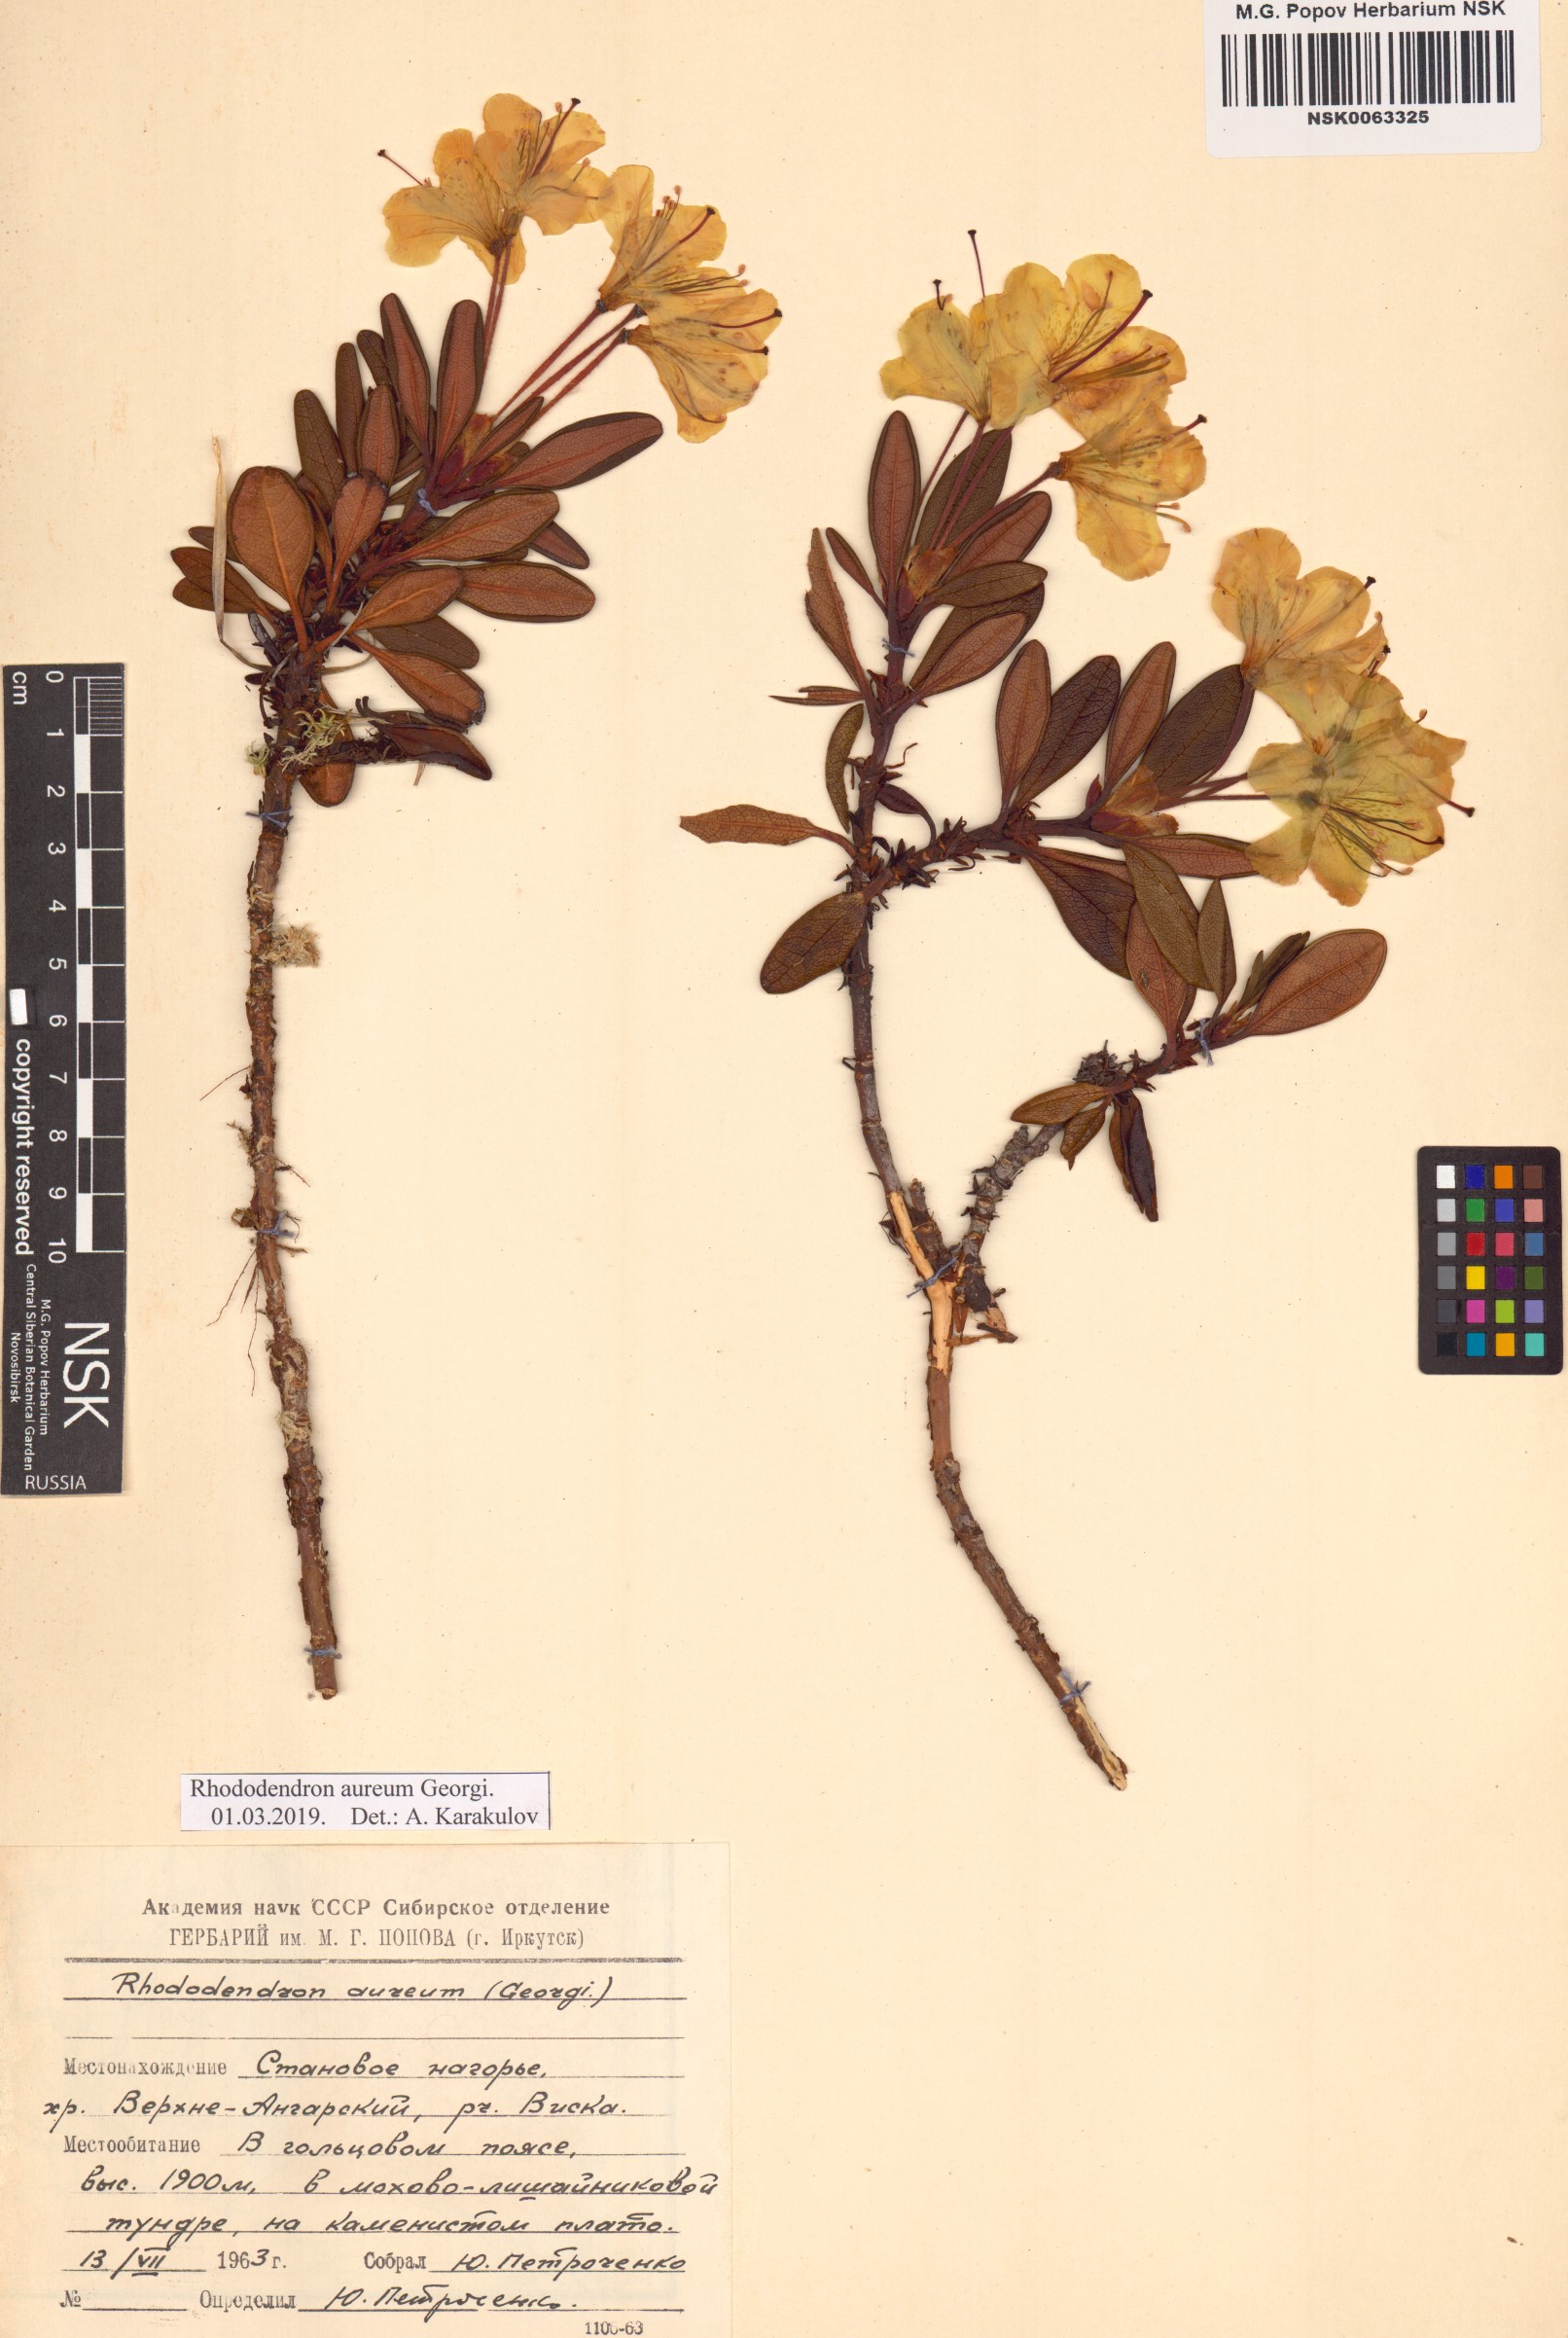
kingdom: Plantae
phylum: Tracheophyta
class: Magnoliopsida
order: Ericales
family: Ericaceae
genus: Rhododendron
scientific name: Rhododendron aureum
